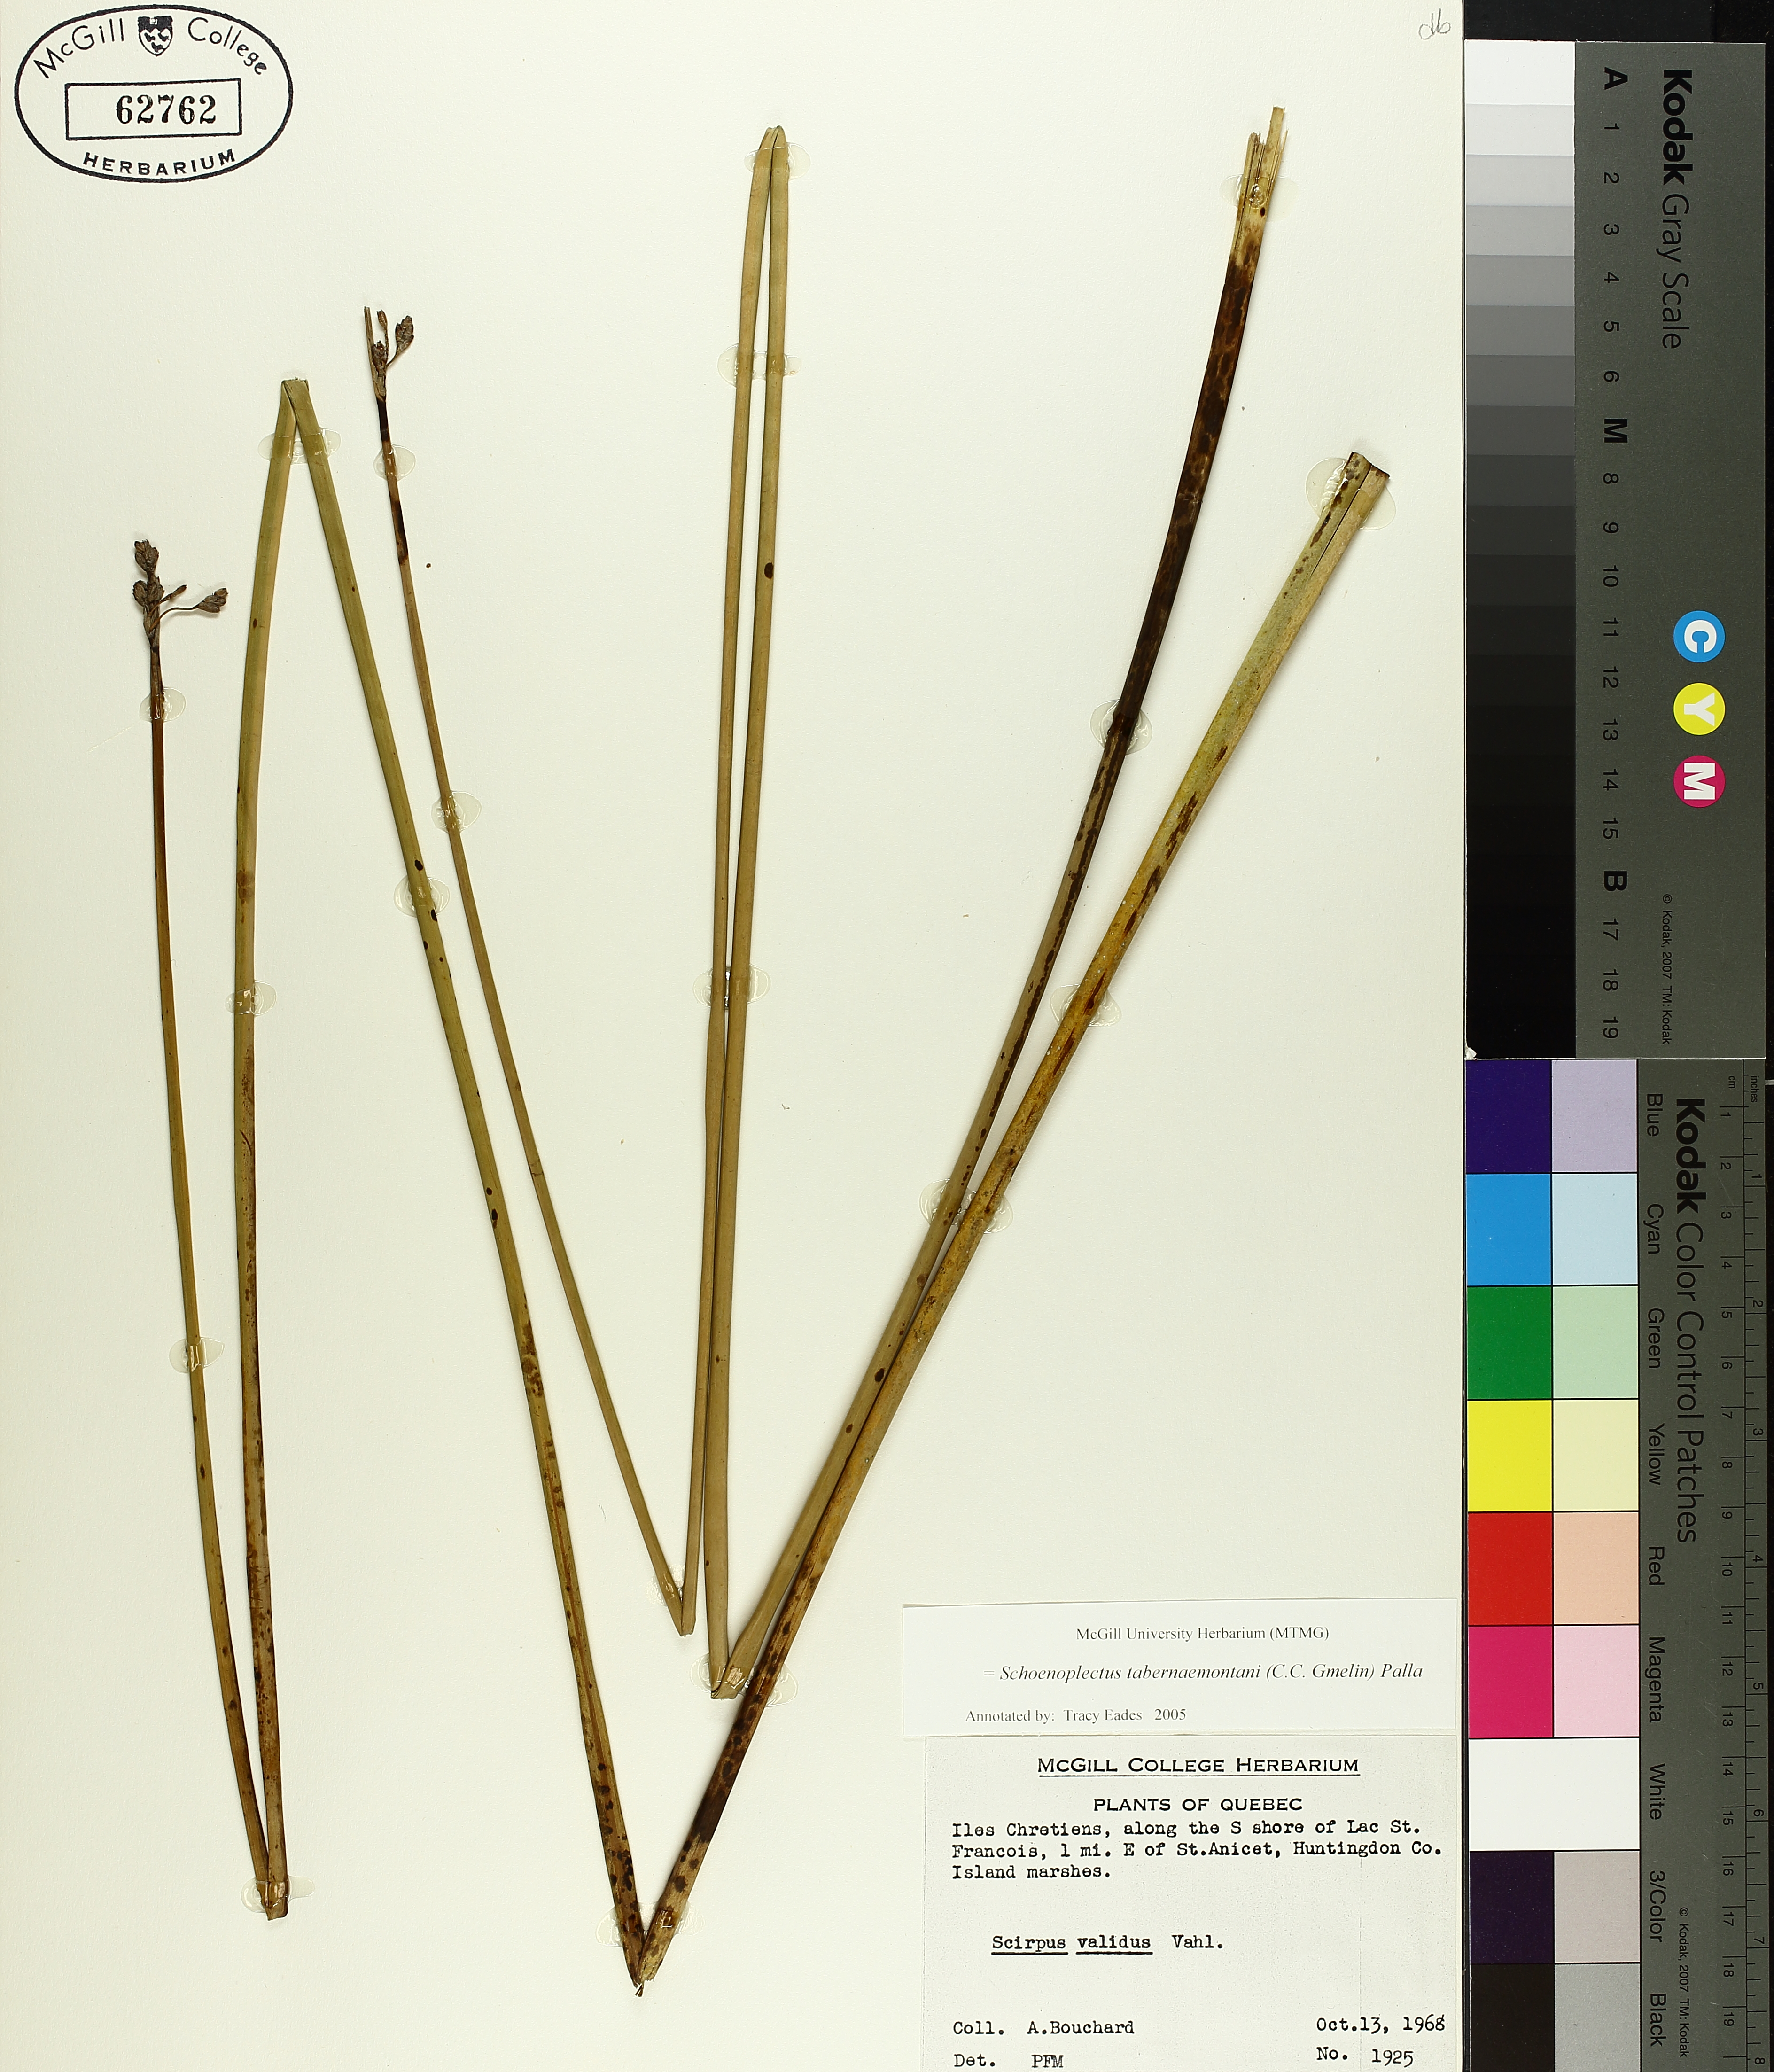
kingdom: Plantae
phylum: Tracheophyta
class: Liliopsida
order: Poales
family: Cyperaceae
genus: Schoenoplectus
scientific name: Schoenoplectus tabernaemontani
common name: Grey club-rush
